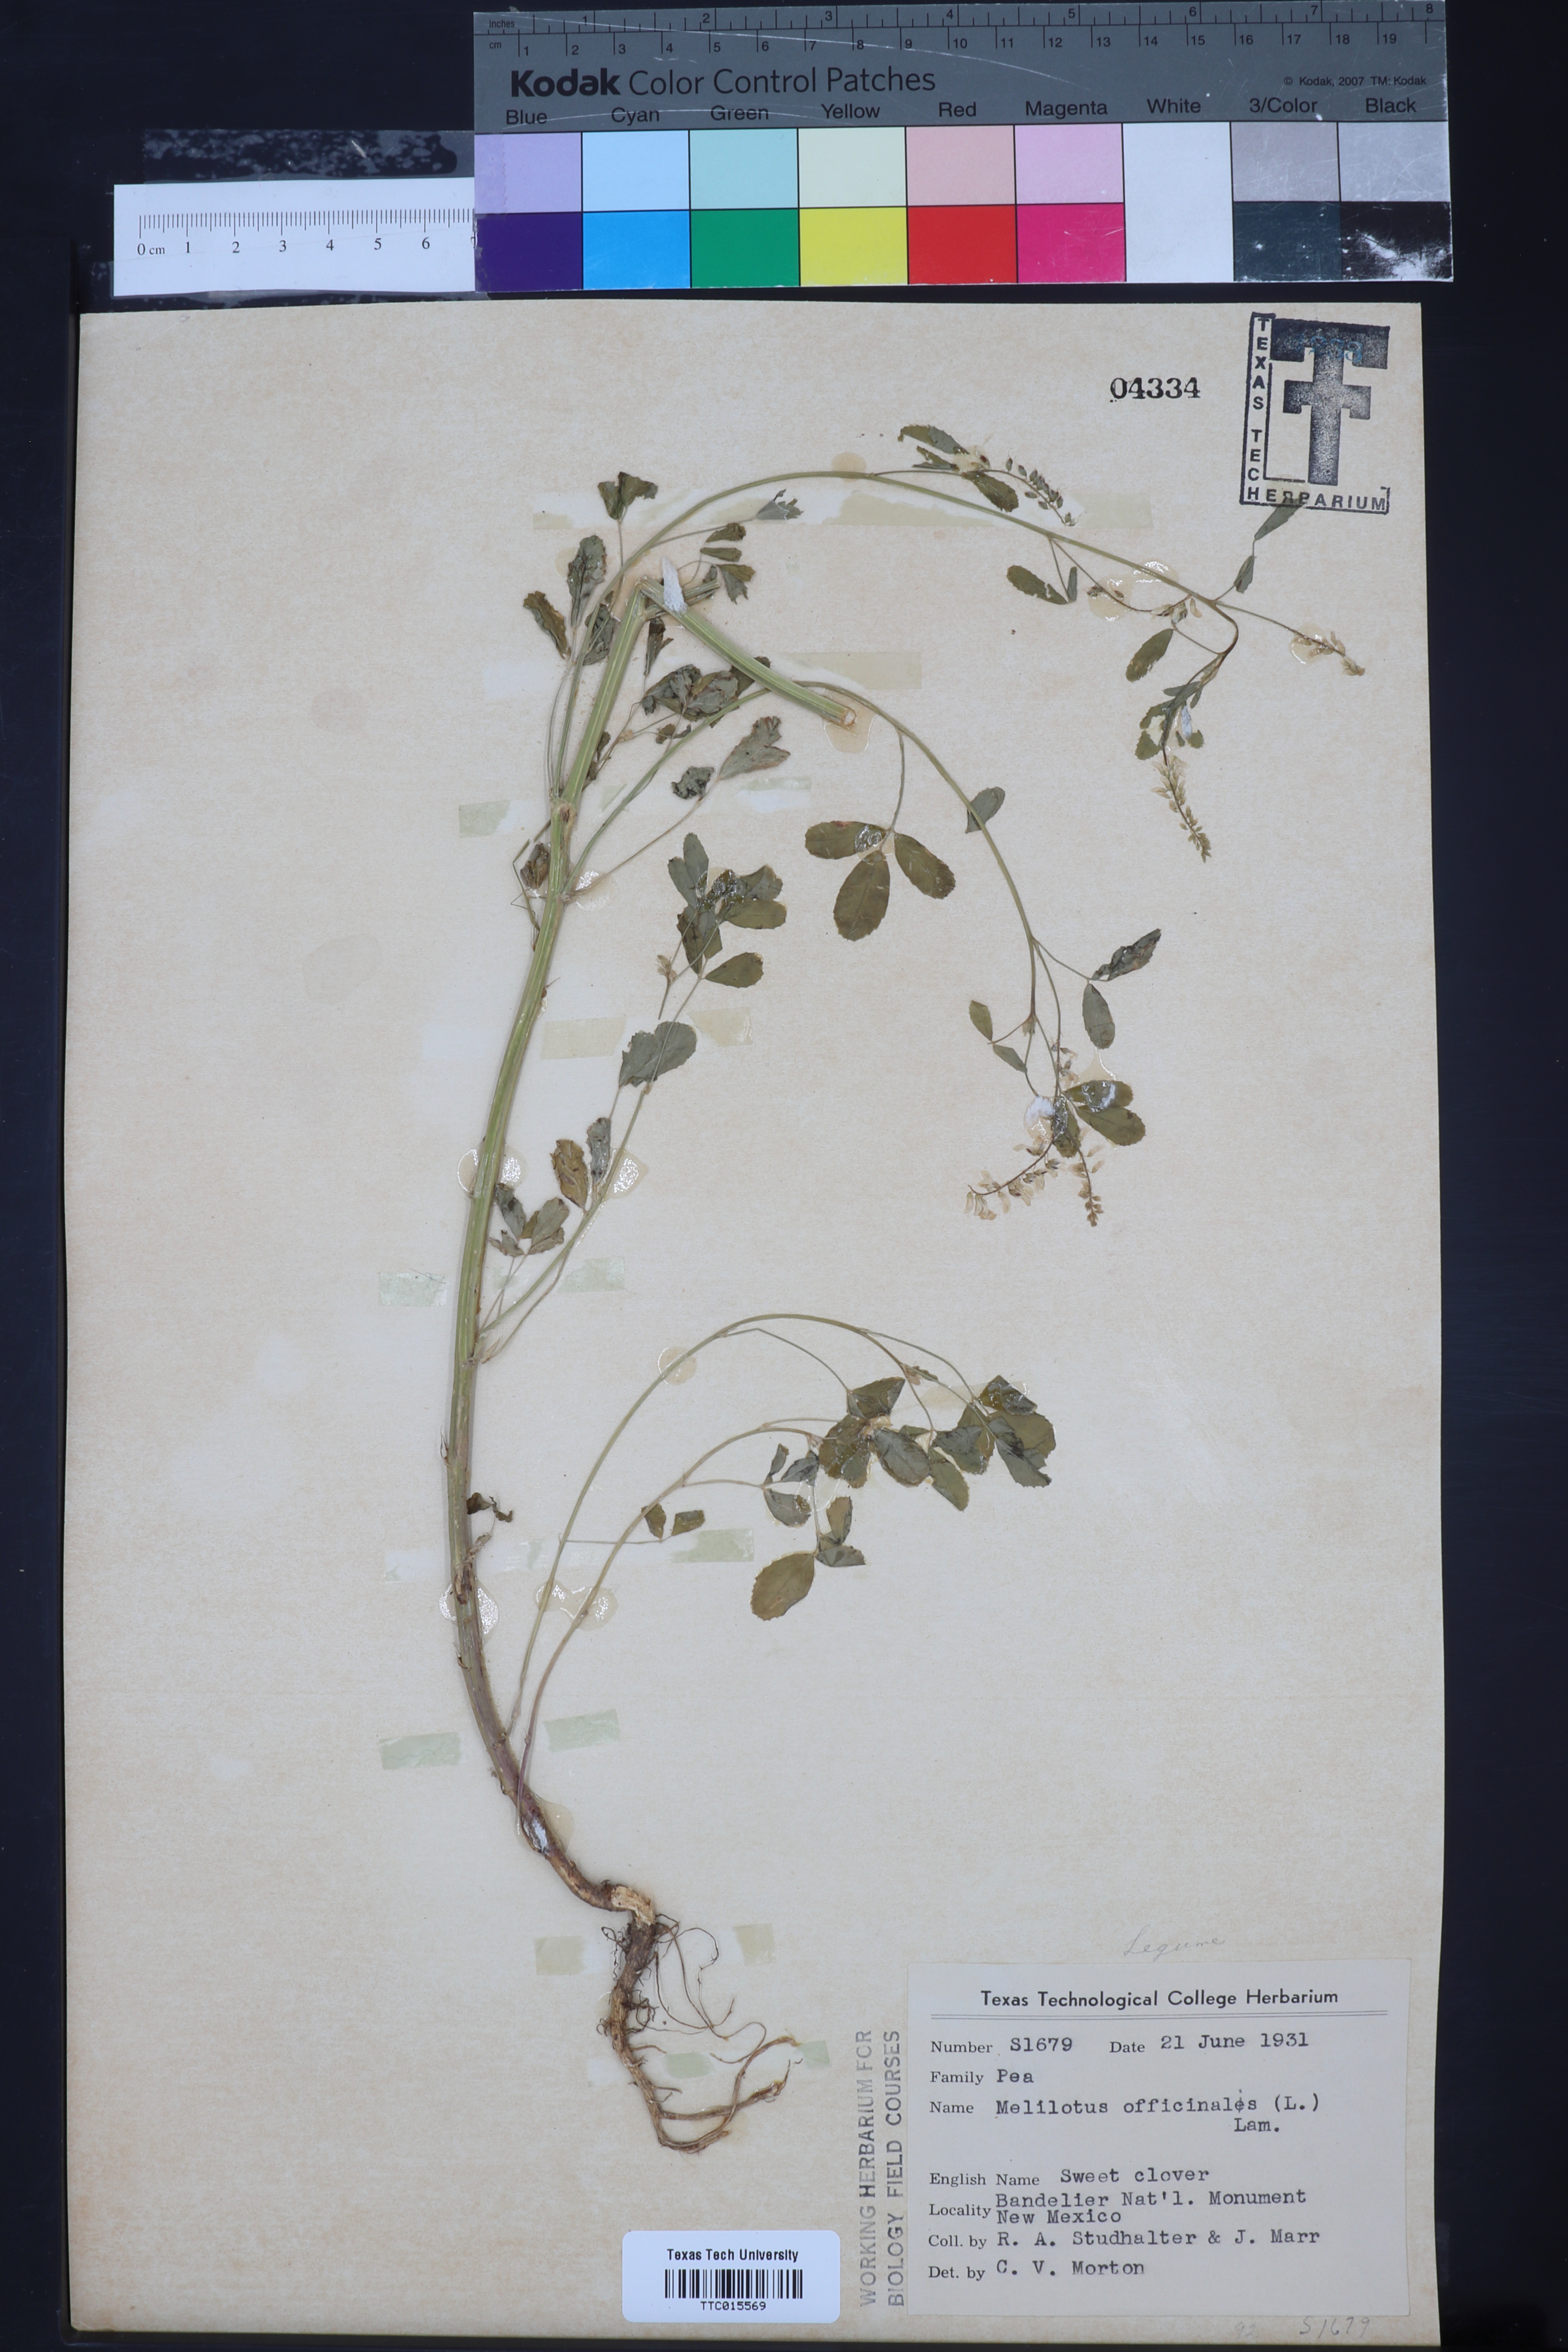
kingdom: Plantae
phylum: Tracheophyta
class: Magnoliopsida
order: Fabales
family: Fabaceae
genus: Melilotus
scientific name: Melilotus officinalis
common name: Sweetclover
